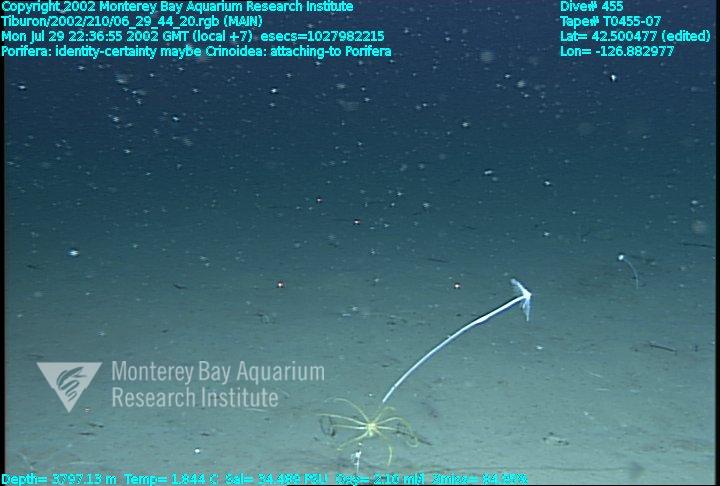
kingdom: Animalia
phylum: Porifera
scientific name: Porifera
